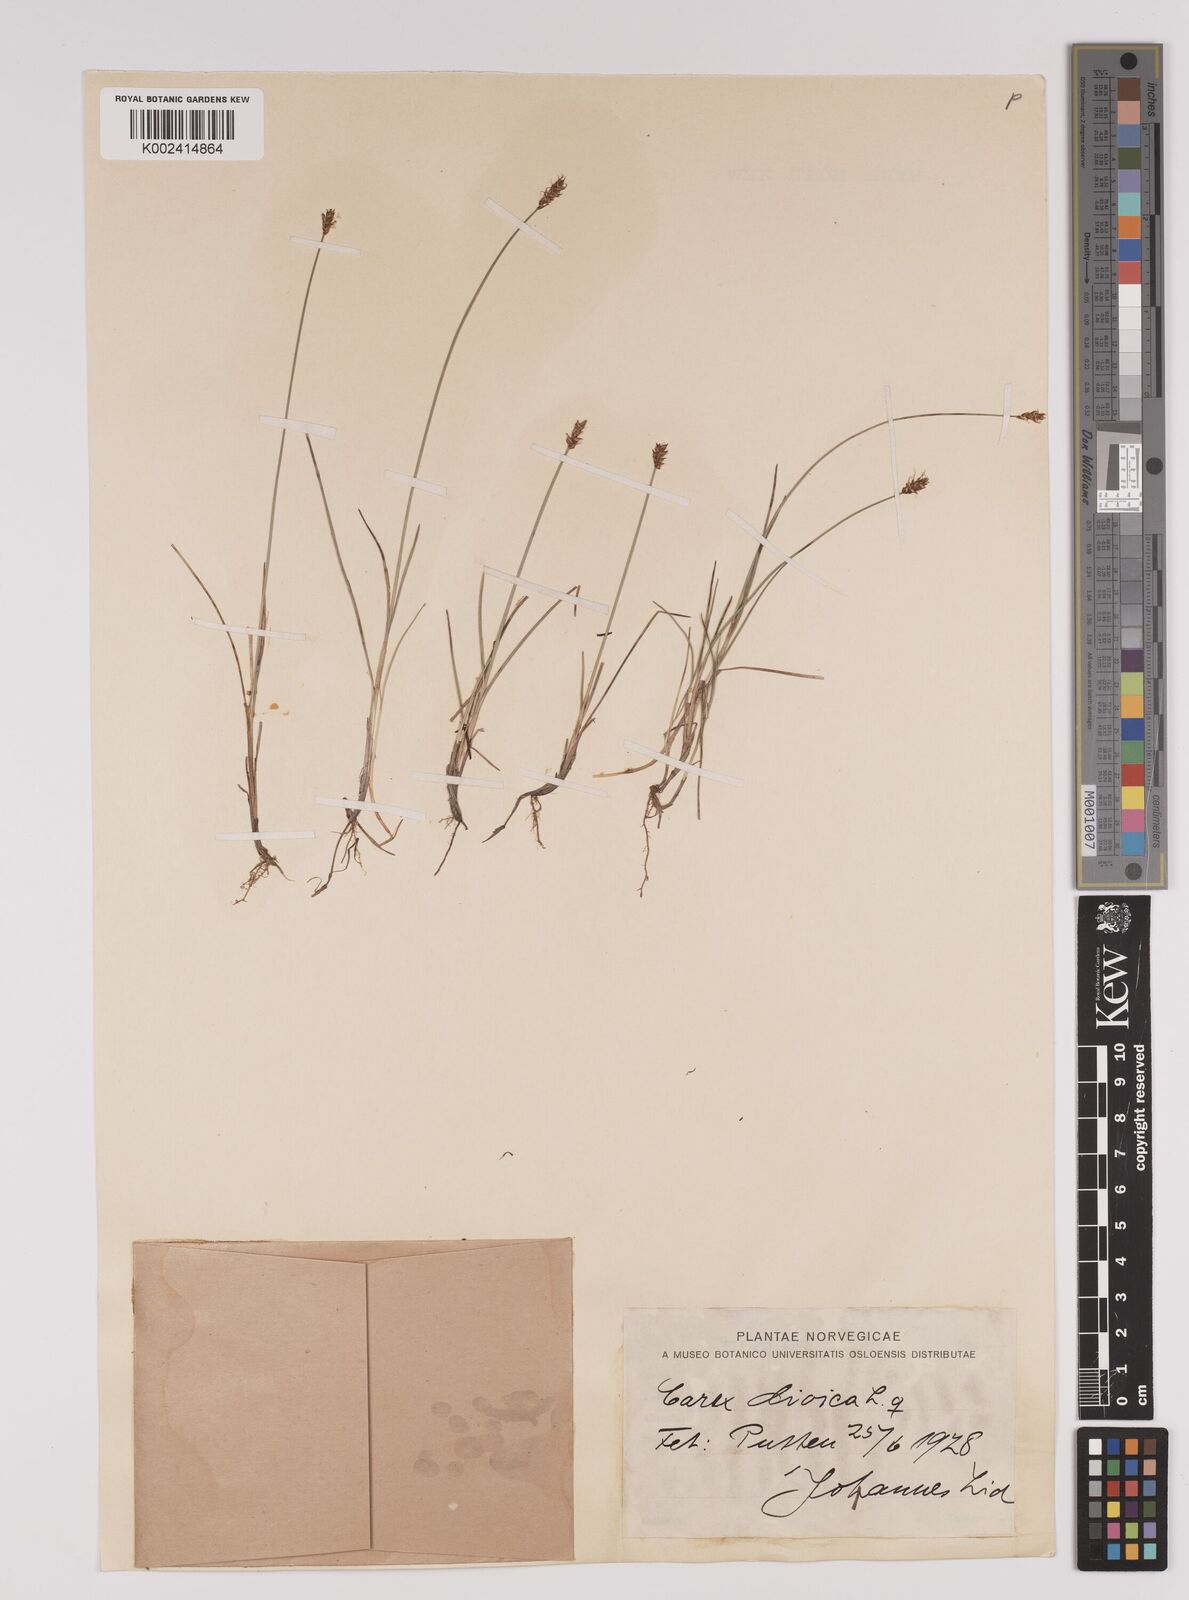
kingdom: Plantae
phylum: Tracheophyta
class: Liliopsida
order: Poales
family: Cyperaceae
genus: Carex
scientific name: Carex dioica
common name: Dioecious sedge
